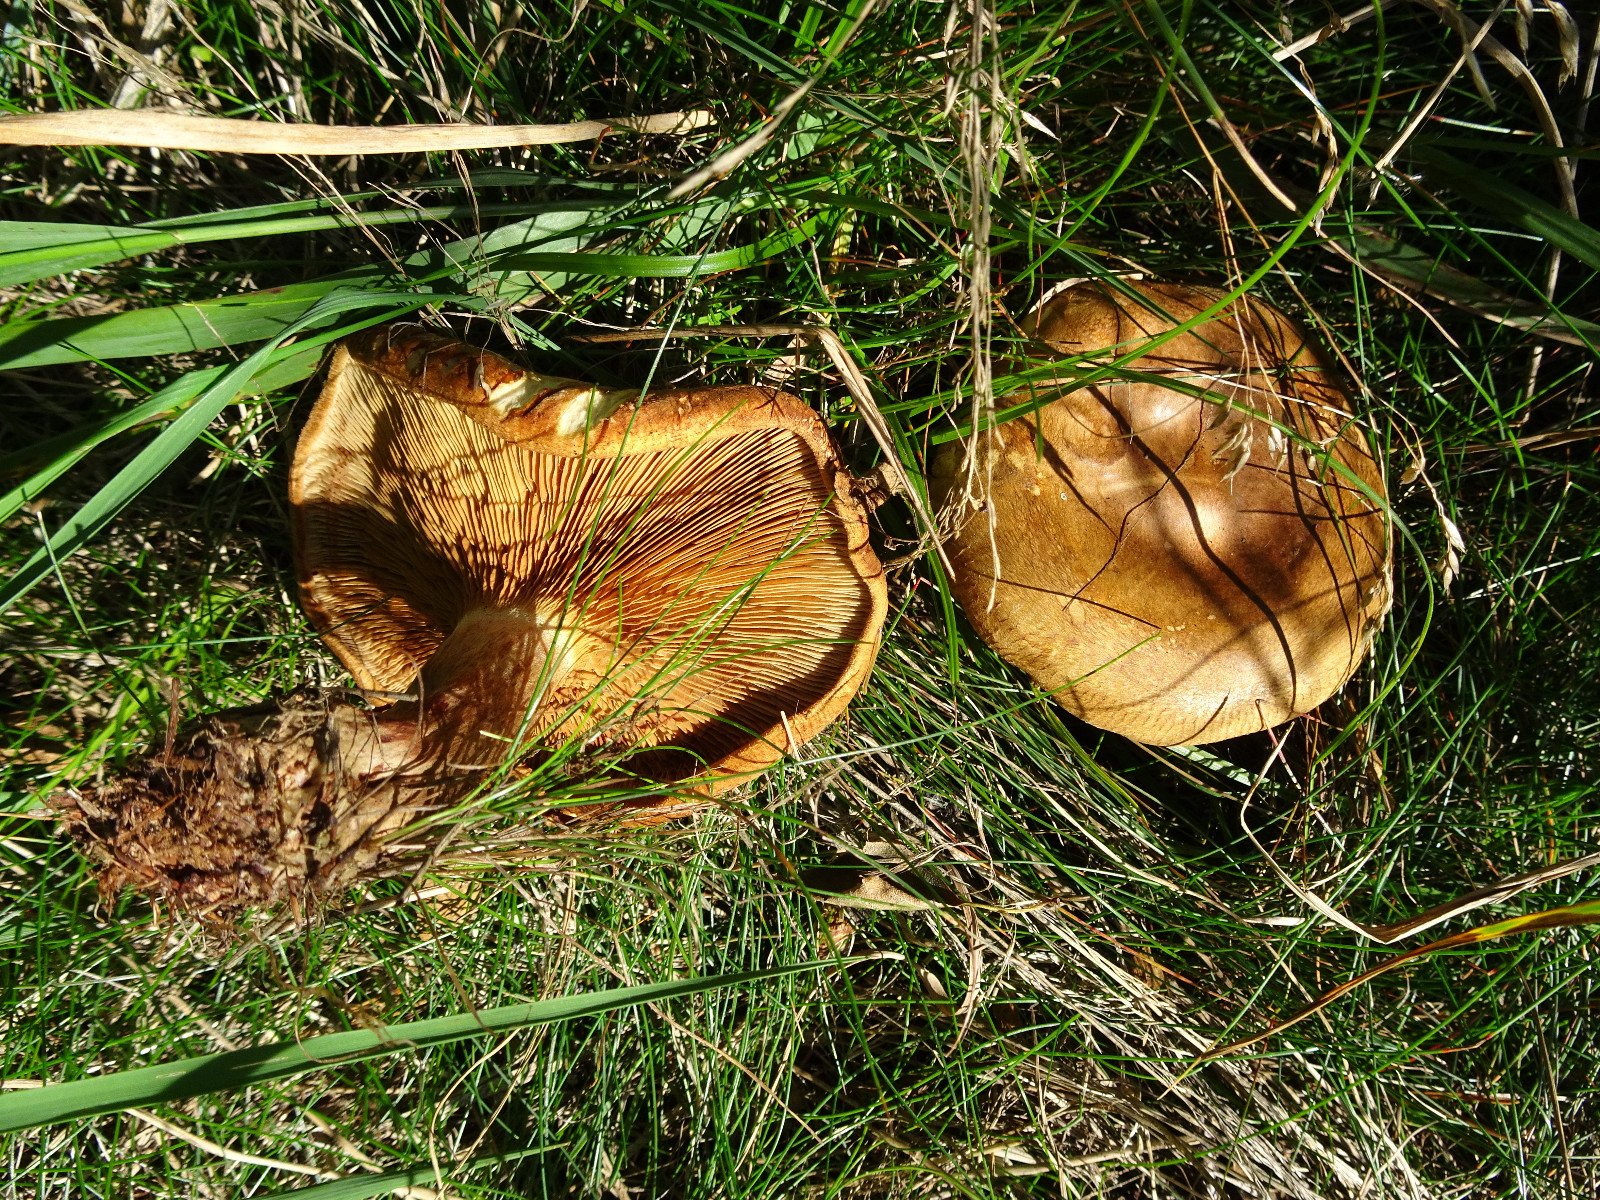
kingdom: Fungi
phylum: Basidiomycota
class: Agaricomycetes
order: Boletales
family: Paxillaceae
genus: Paxillus
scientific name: Paxillus involutus
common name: almindelig netbladhat
